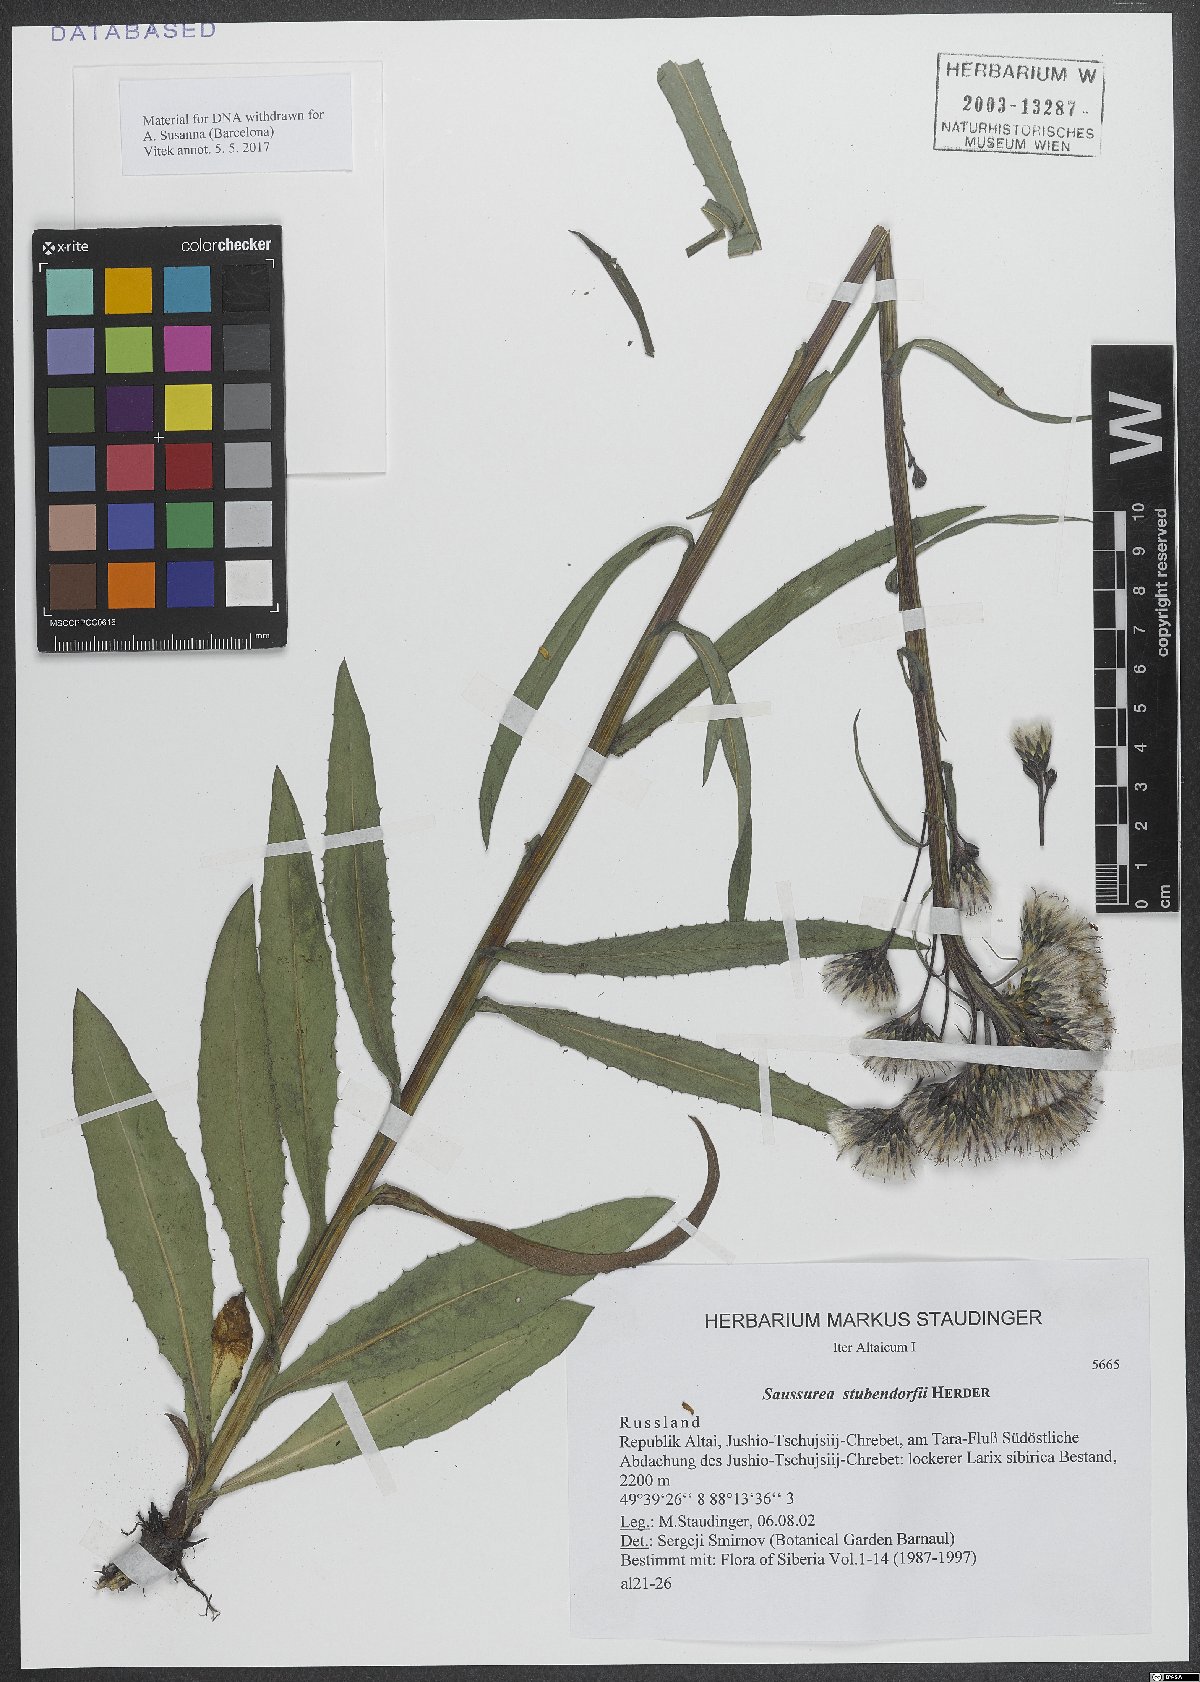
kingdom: Plantae
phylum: Tracheophyta
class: Magnoliopsida
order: Asterales
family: Asteraceae
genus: Saussurea
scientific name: Saussurea stubendorffii
